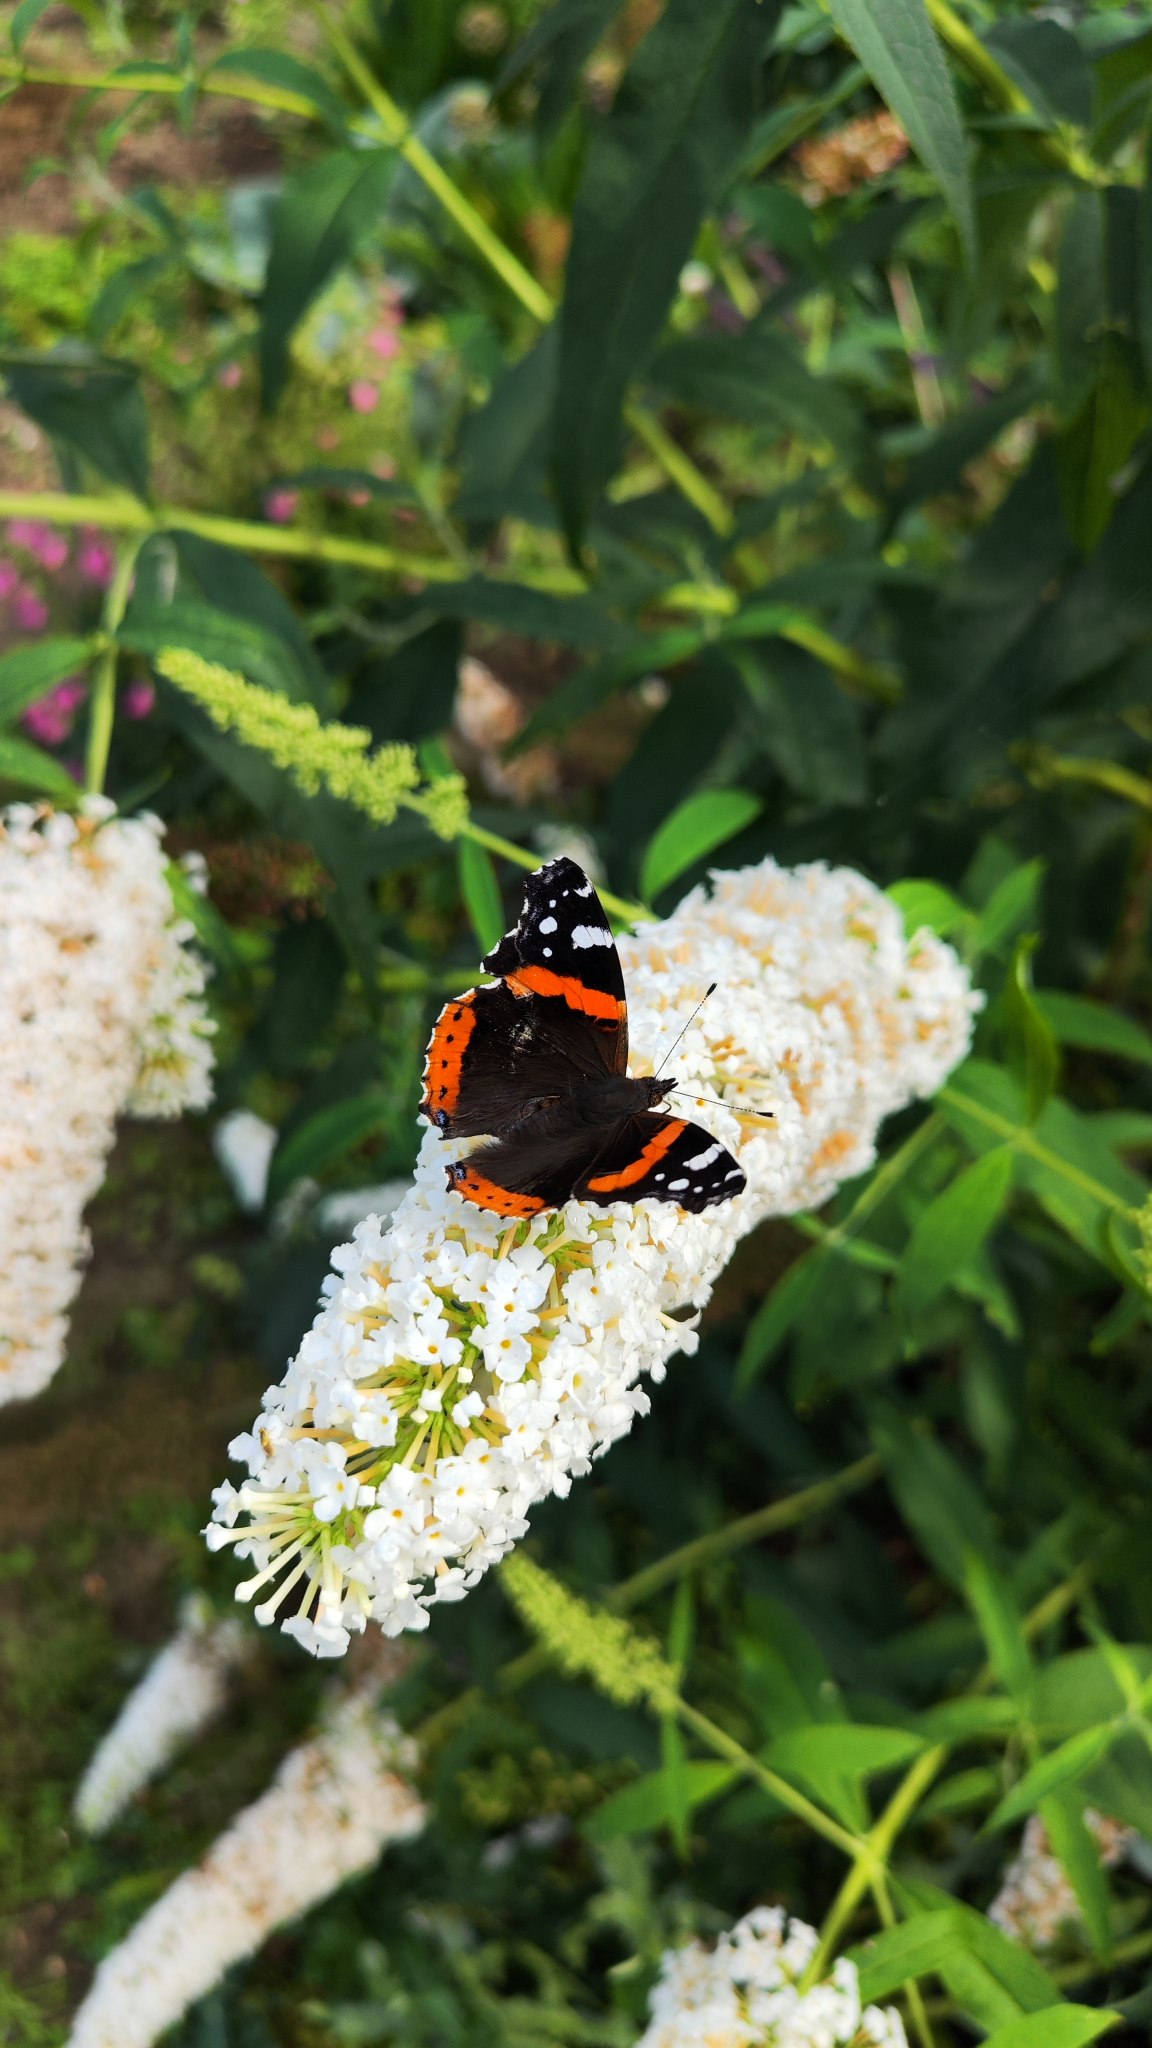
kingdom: Animalia
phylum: Arthropoda
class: Insecta
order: Lepidoptera
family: Nymphalidae
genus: Vanessa
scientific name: Vanessa atalanta
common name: Admiral
